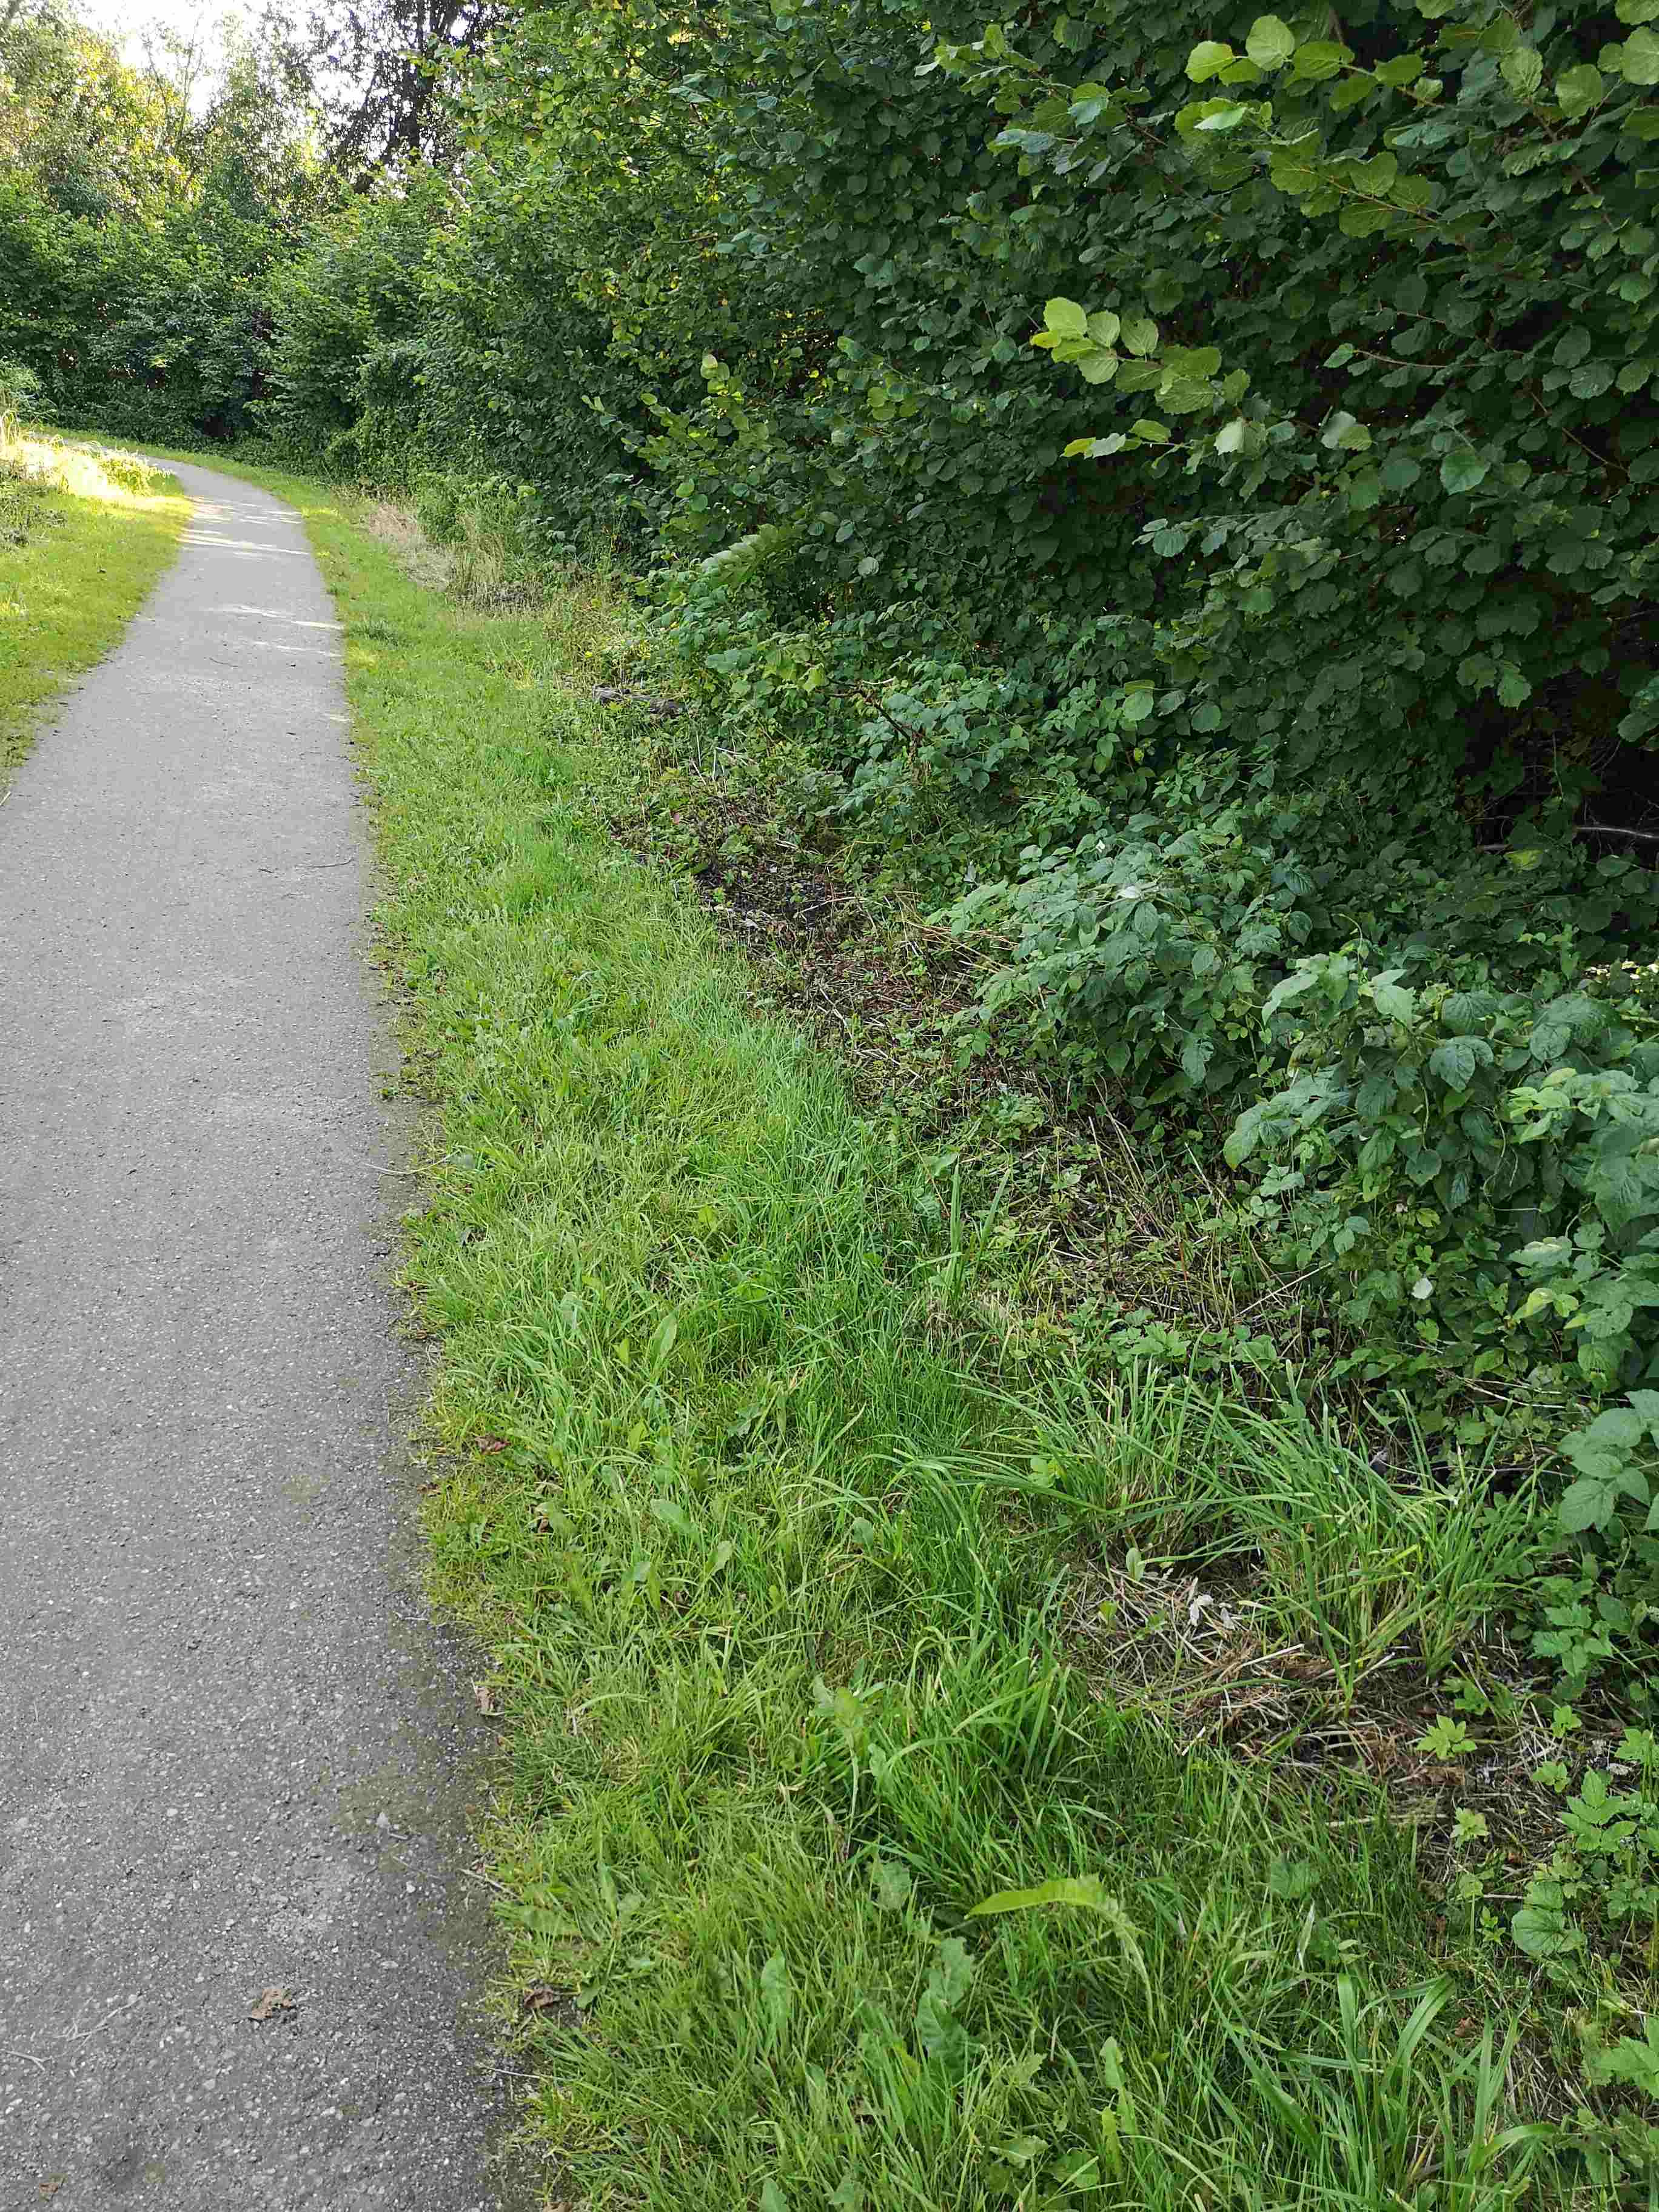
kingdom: Fungi
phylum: Basidiomycota
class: Agaricomycetes
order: Agaricales
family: Bolbitiaceae
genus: Bolbitius
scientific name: Bolbitius titubans
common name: almindelig gulhat
